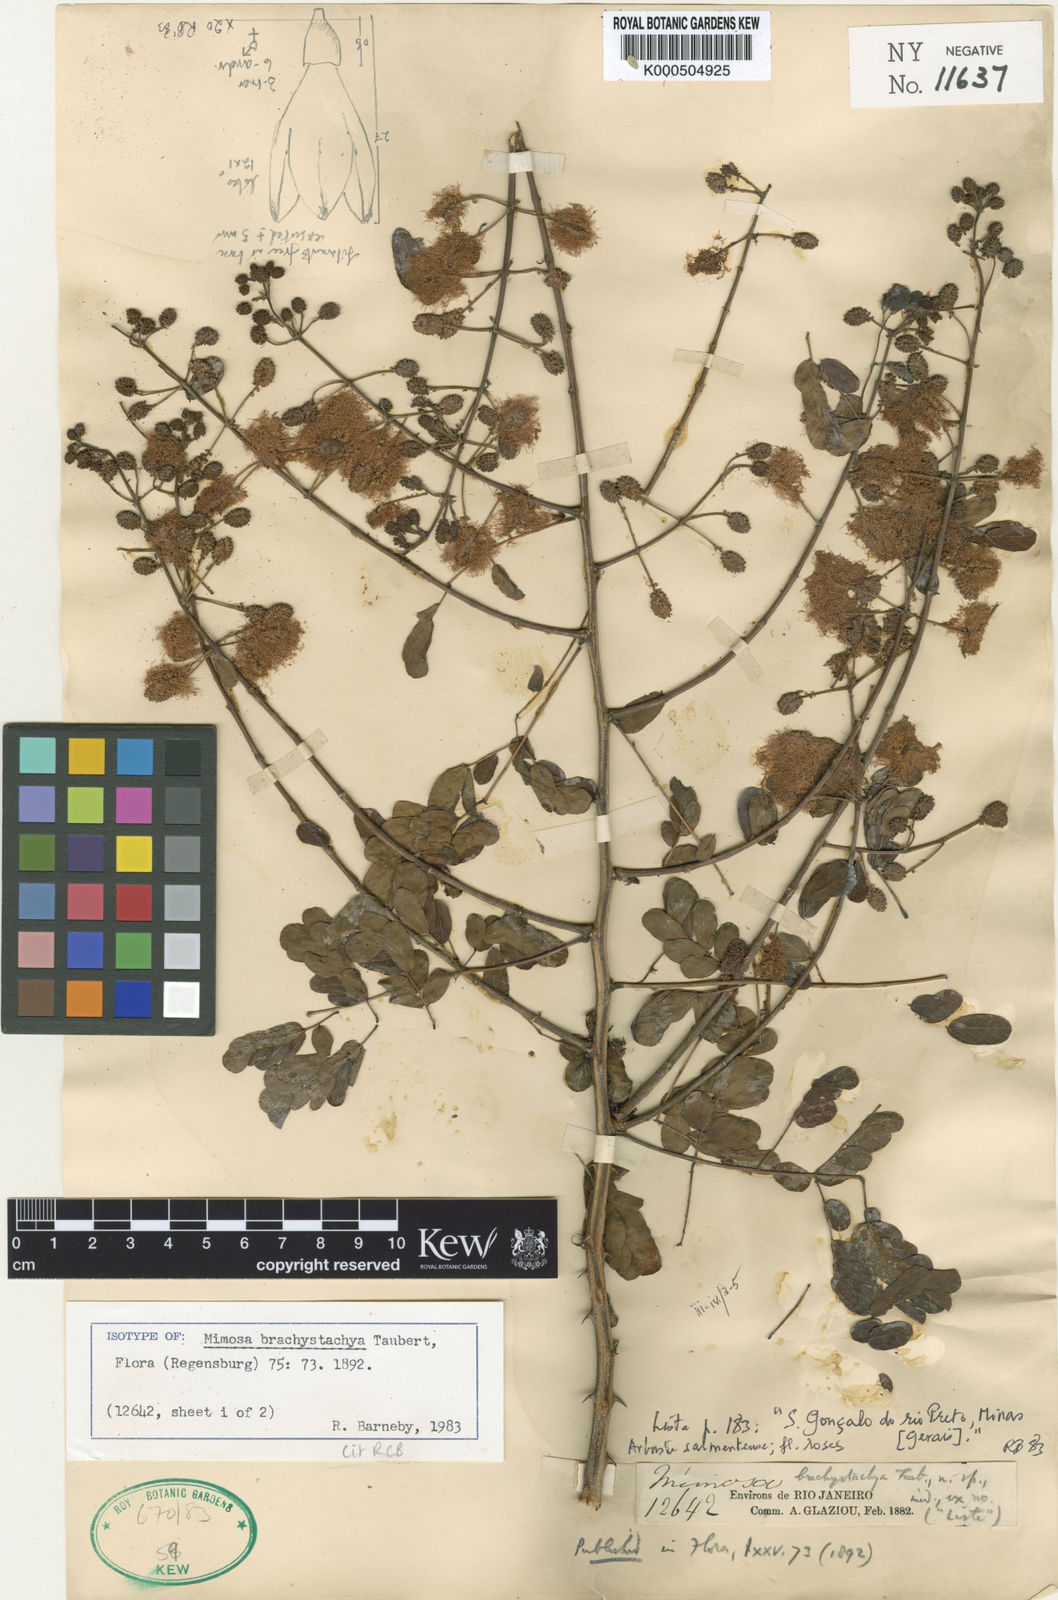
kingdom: Plantae
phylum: Tracheophyta
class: Magnoliopsida
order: Fabales
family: Fabaceae
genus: Mimosa
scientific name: Mimosa brachystachya
